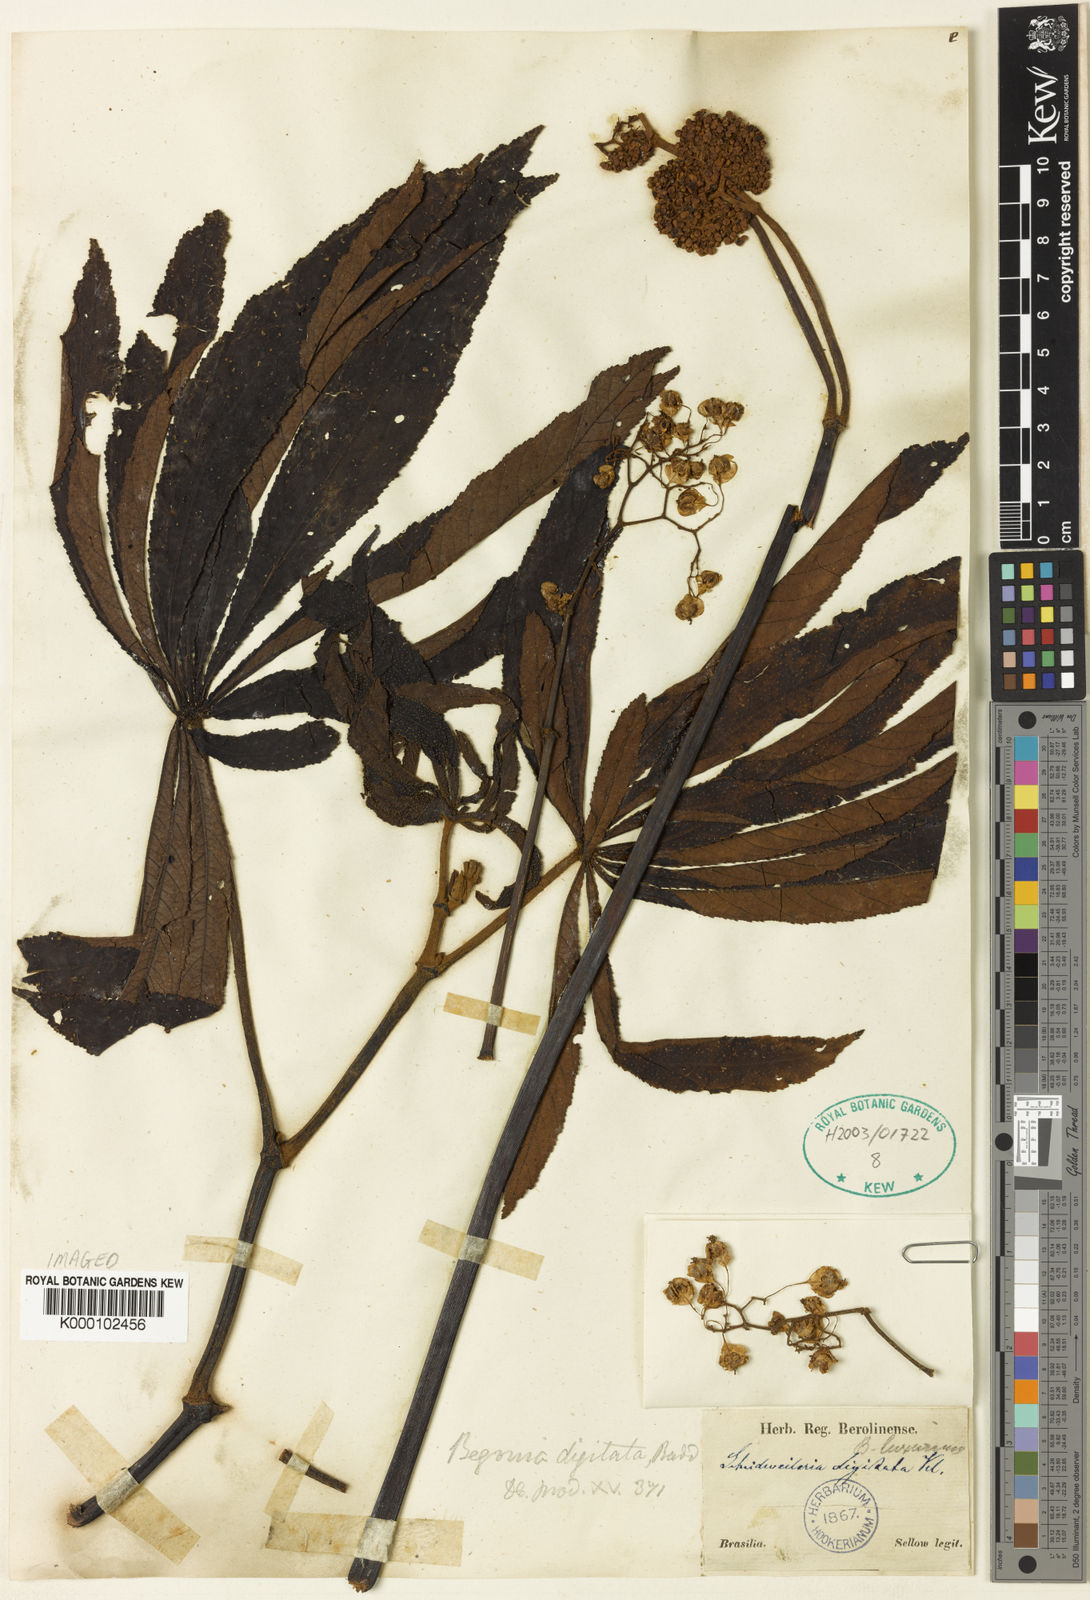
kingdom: Plantae
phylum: Tracheophyta
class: Magnoliopsida
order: Cucurbitales
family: Begoniaceae
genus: Begonia
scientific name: Begonia
